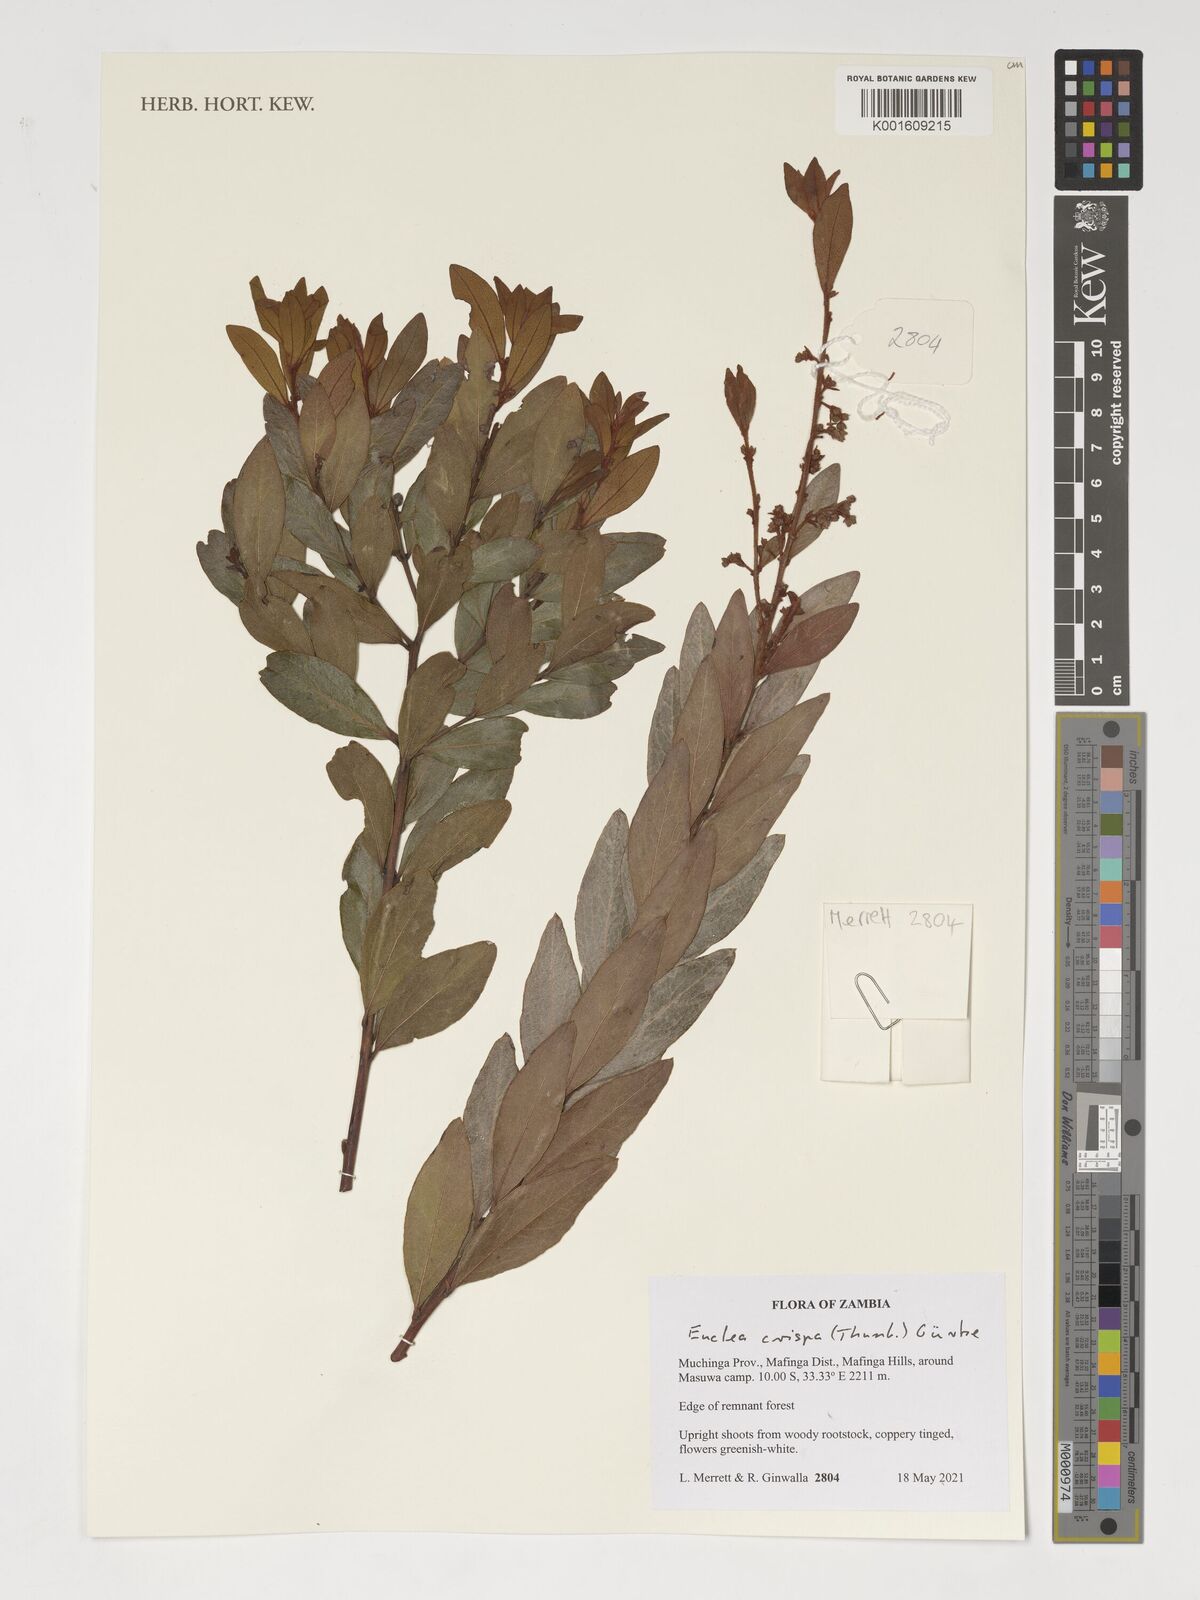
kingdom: Plantae
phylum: Tracheophyta
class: Magnoliopsida
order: Ericales
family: Ebenaceae
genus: Euclea
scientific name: Euclea crispa
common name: Blue guarri
